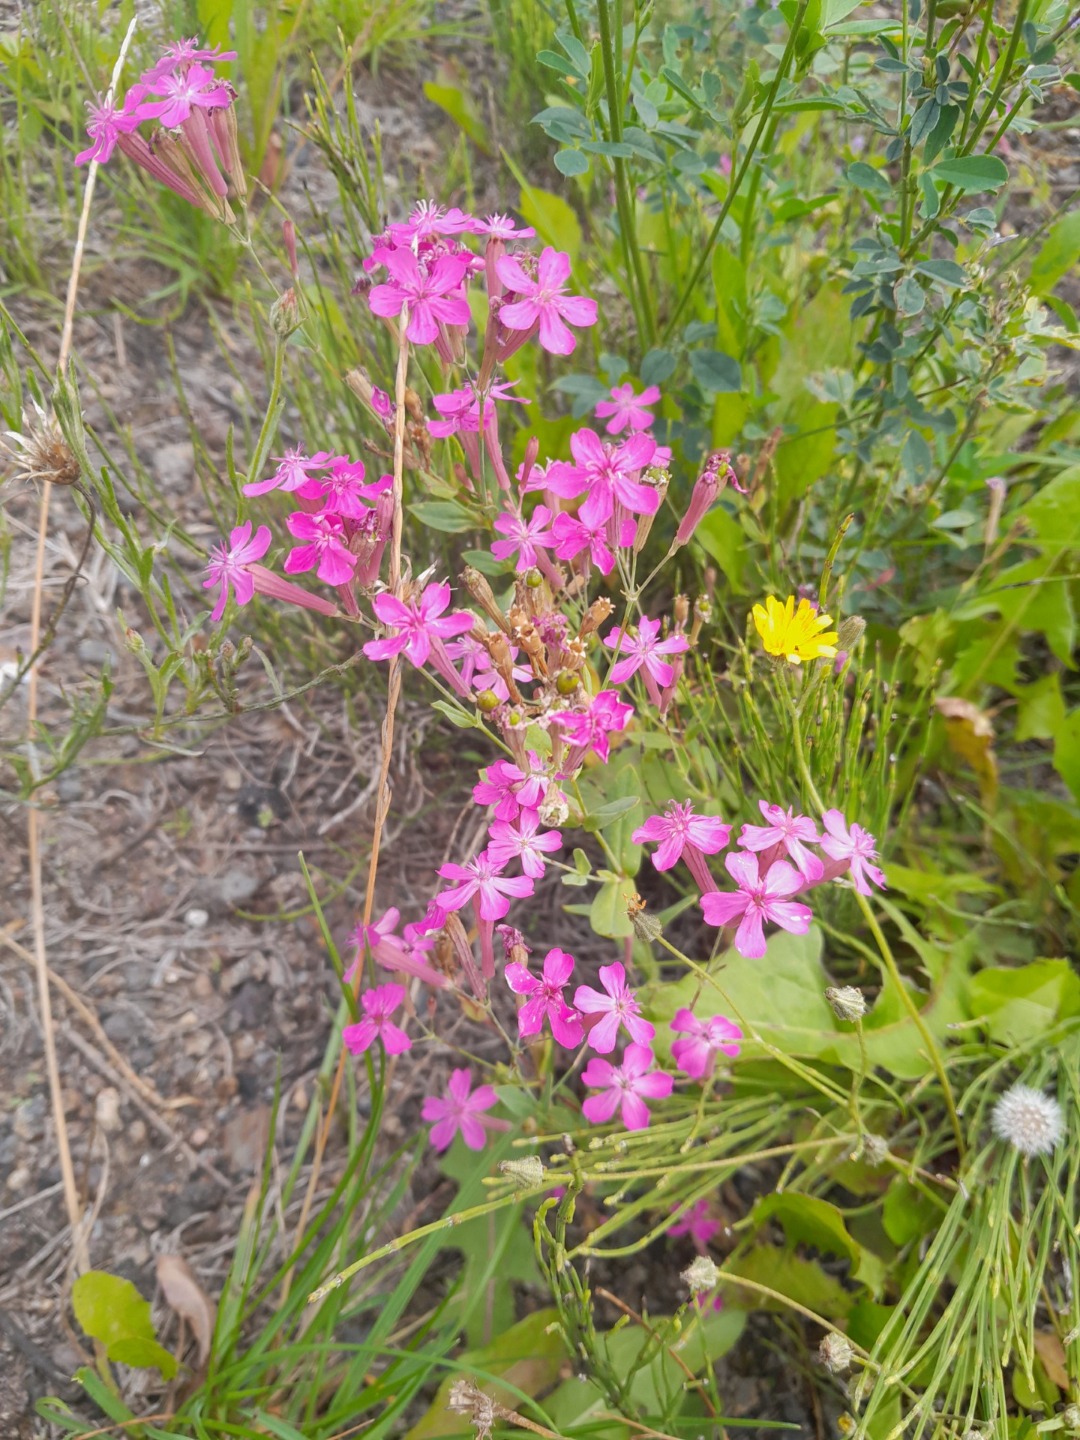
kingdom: Plantae
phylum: Tracheophyta
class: Magnoliopsida
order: Caryophyllales
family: Caryophyllaceae
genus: Atocion
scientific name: Atocion armeria
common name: Knippe-limurt
